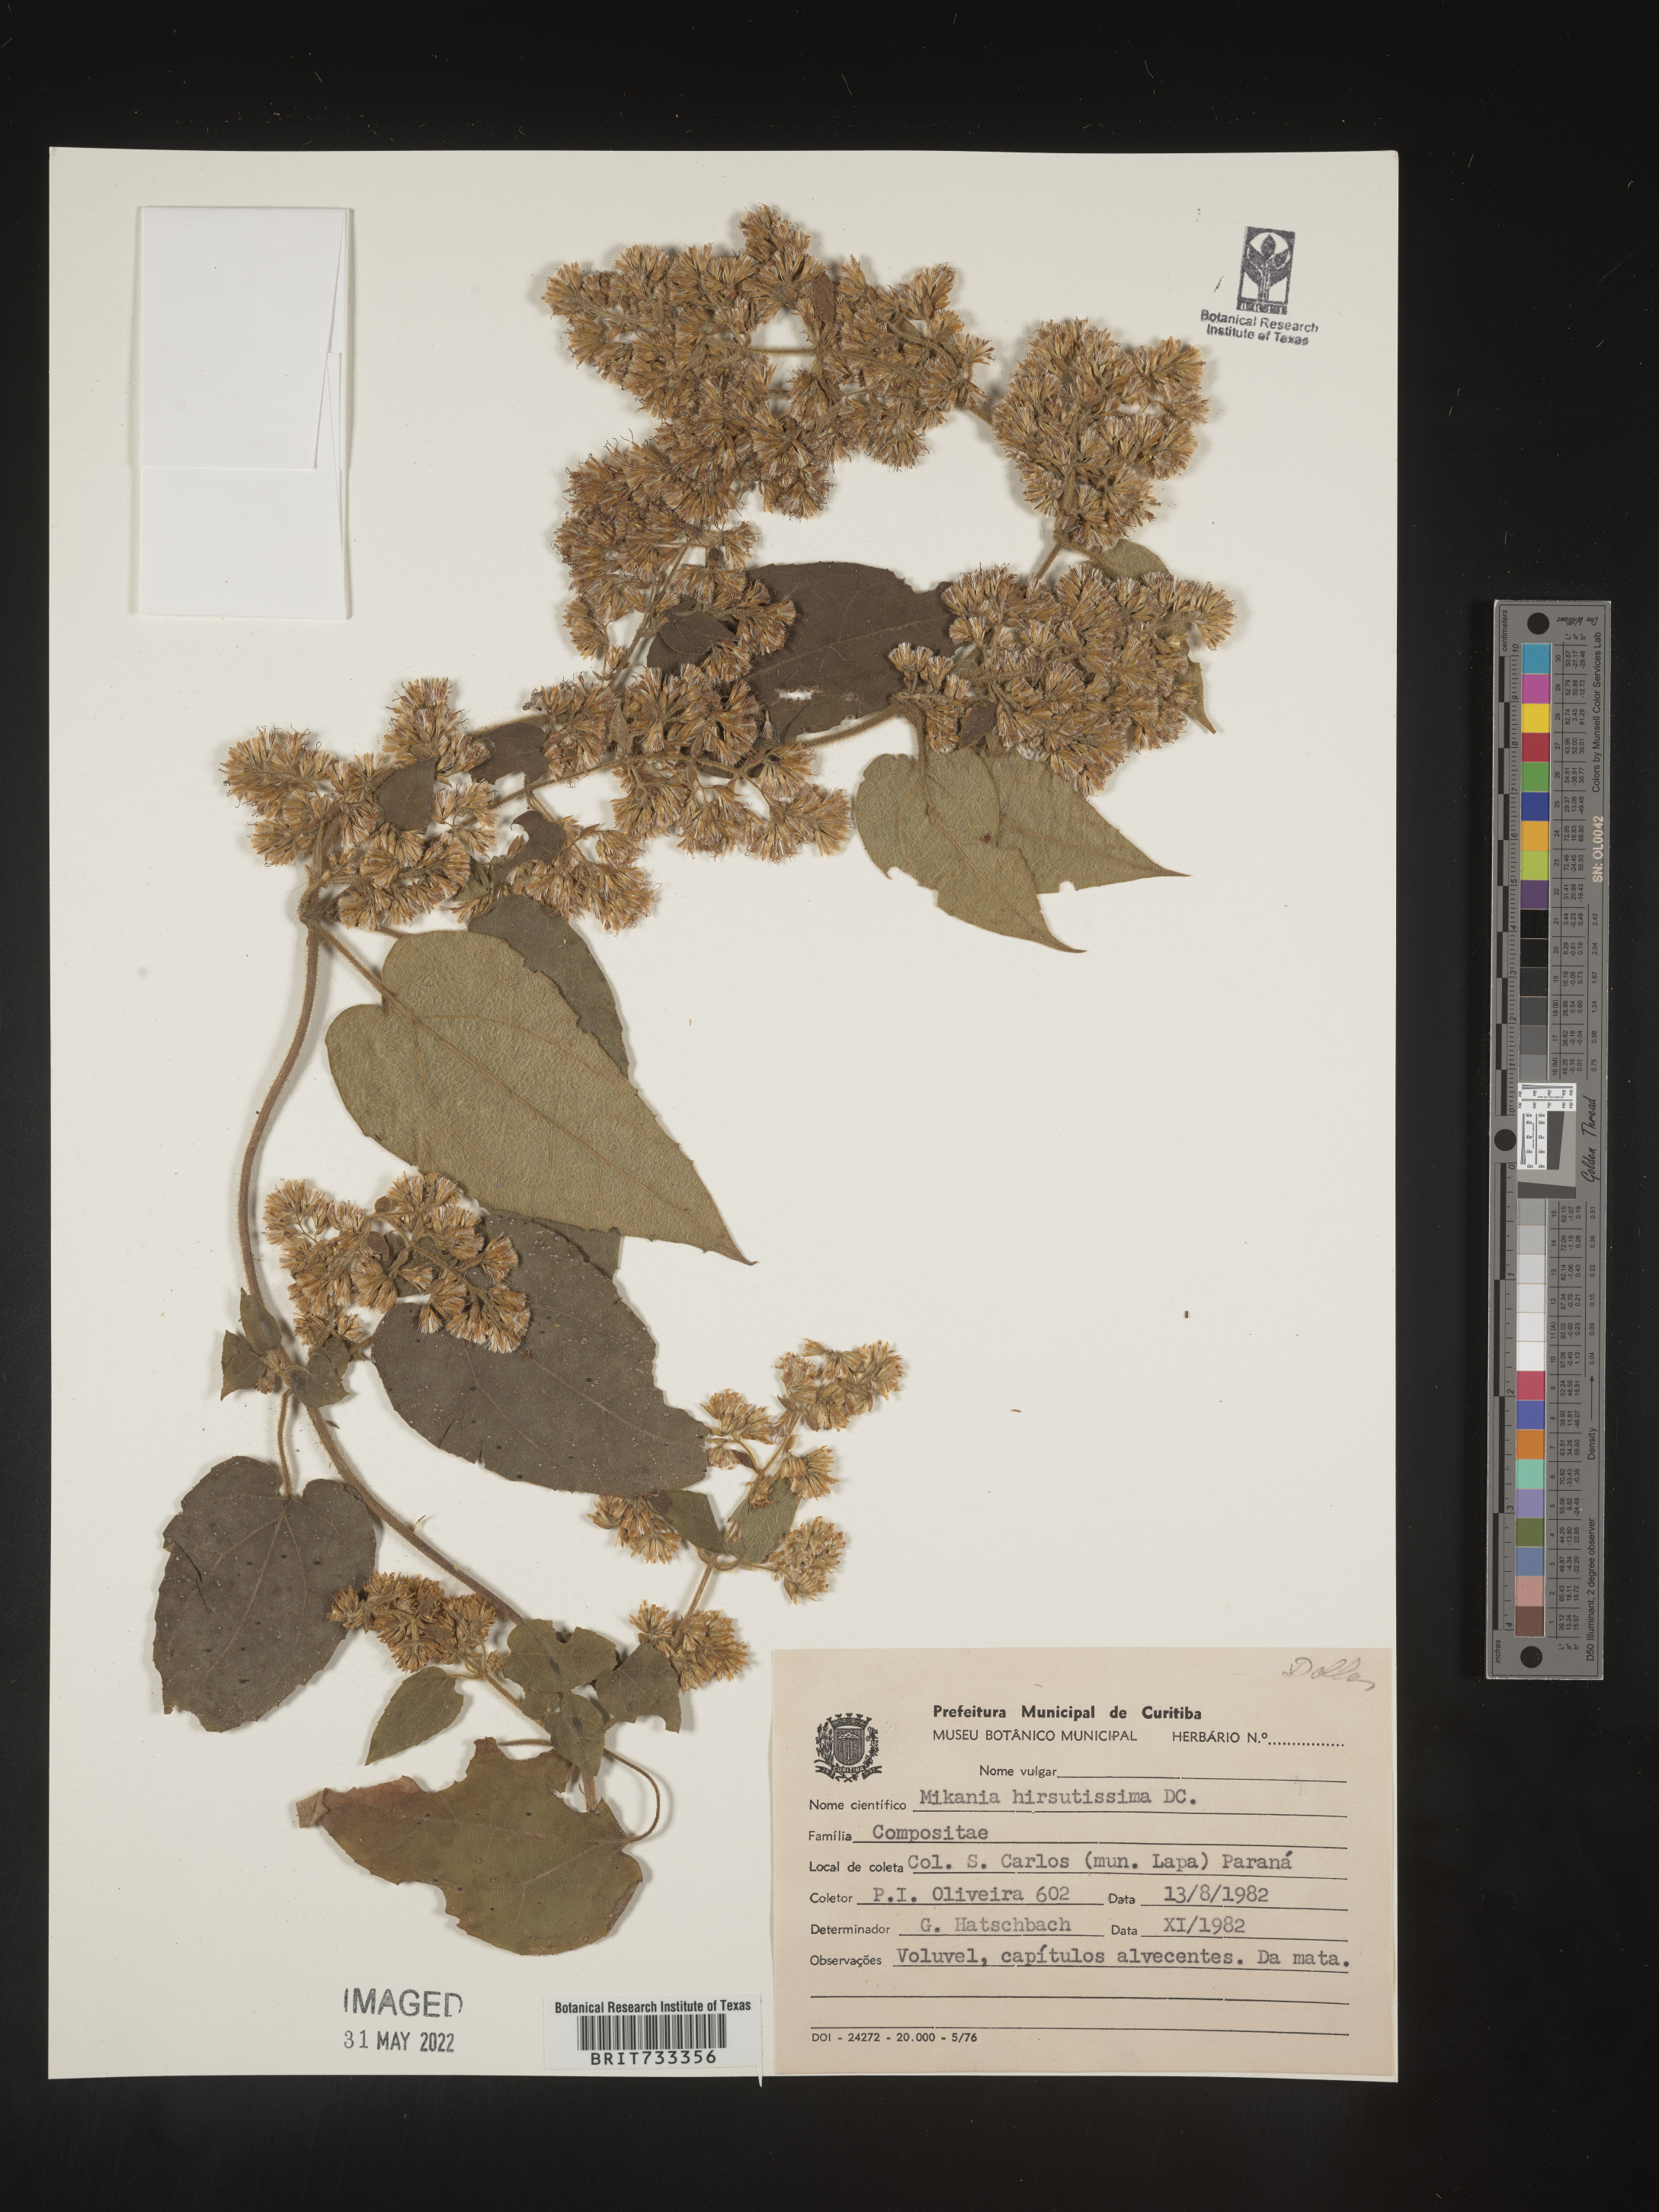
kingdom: Plantae
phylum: Tracheophyta
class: Magnoliopsida
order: Asterales
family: Asteraceae
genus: Mikania
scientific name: Mikania
